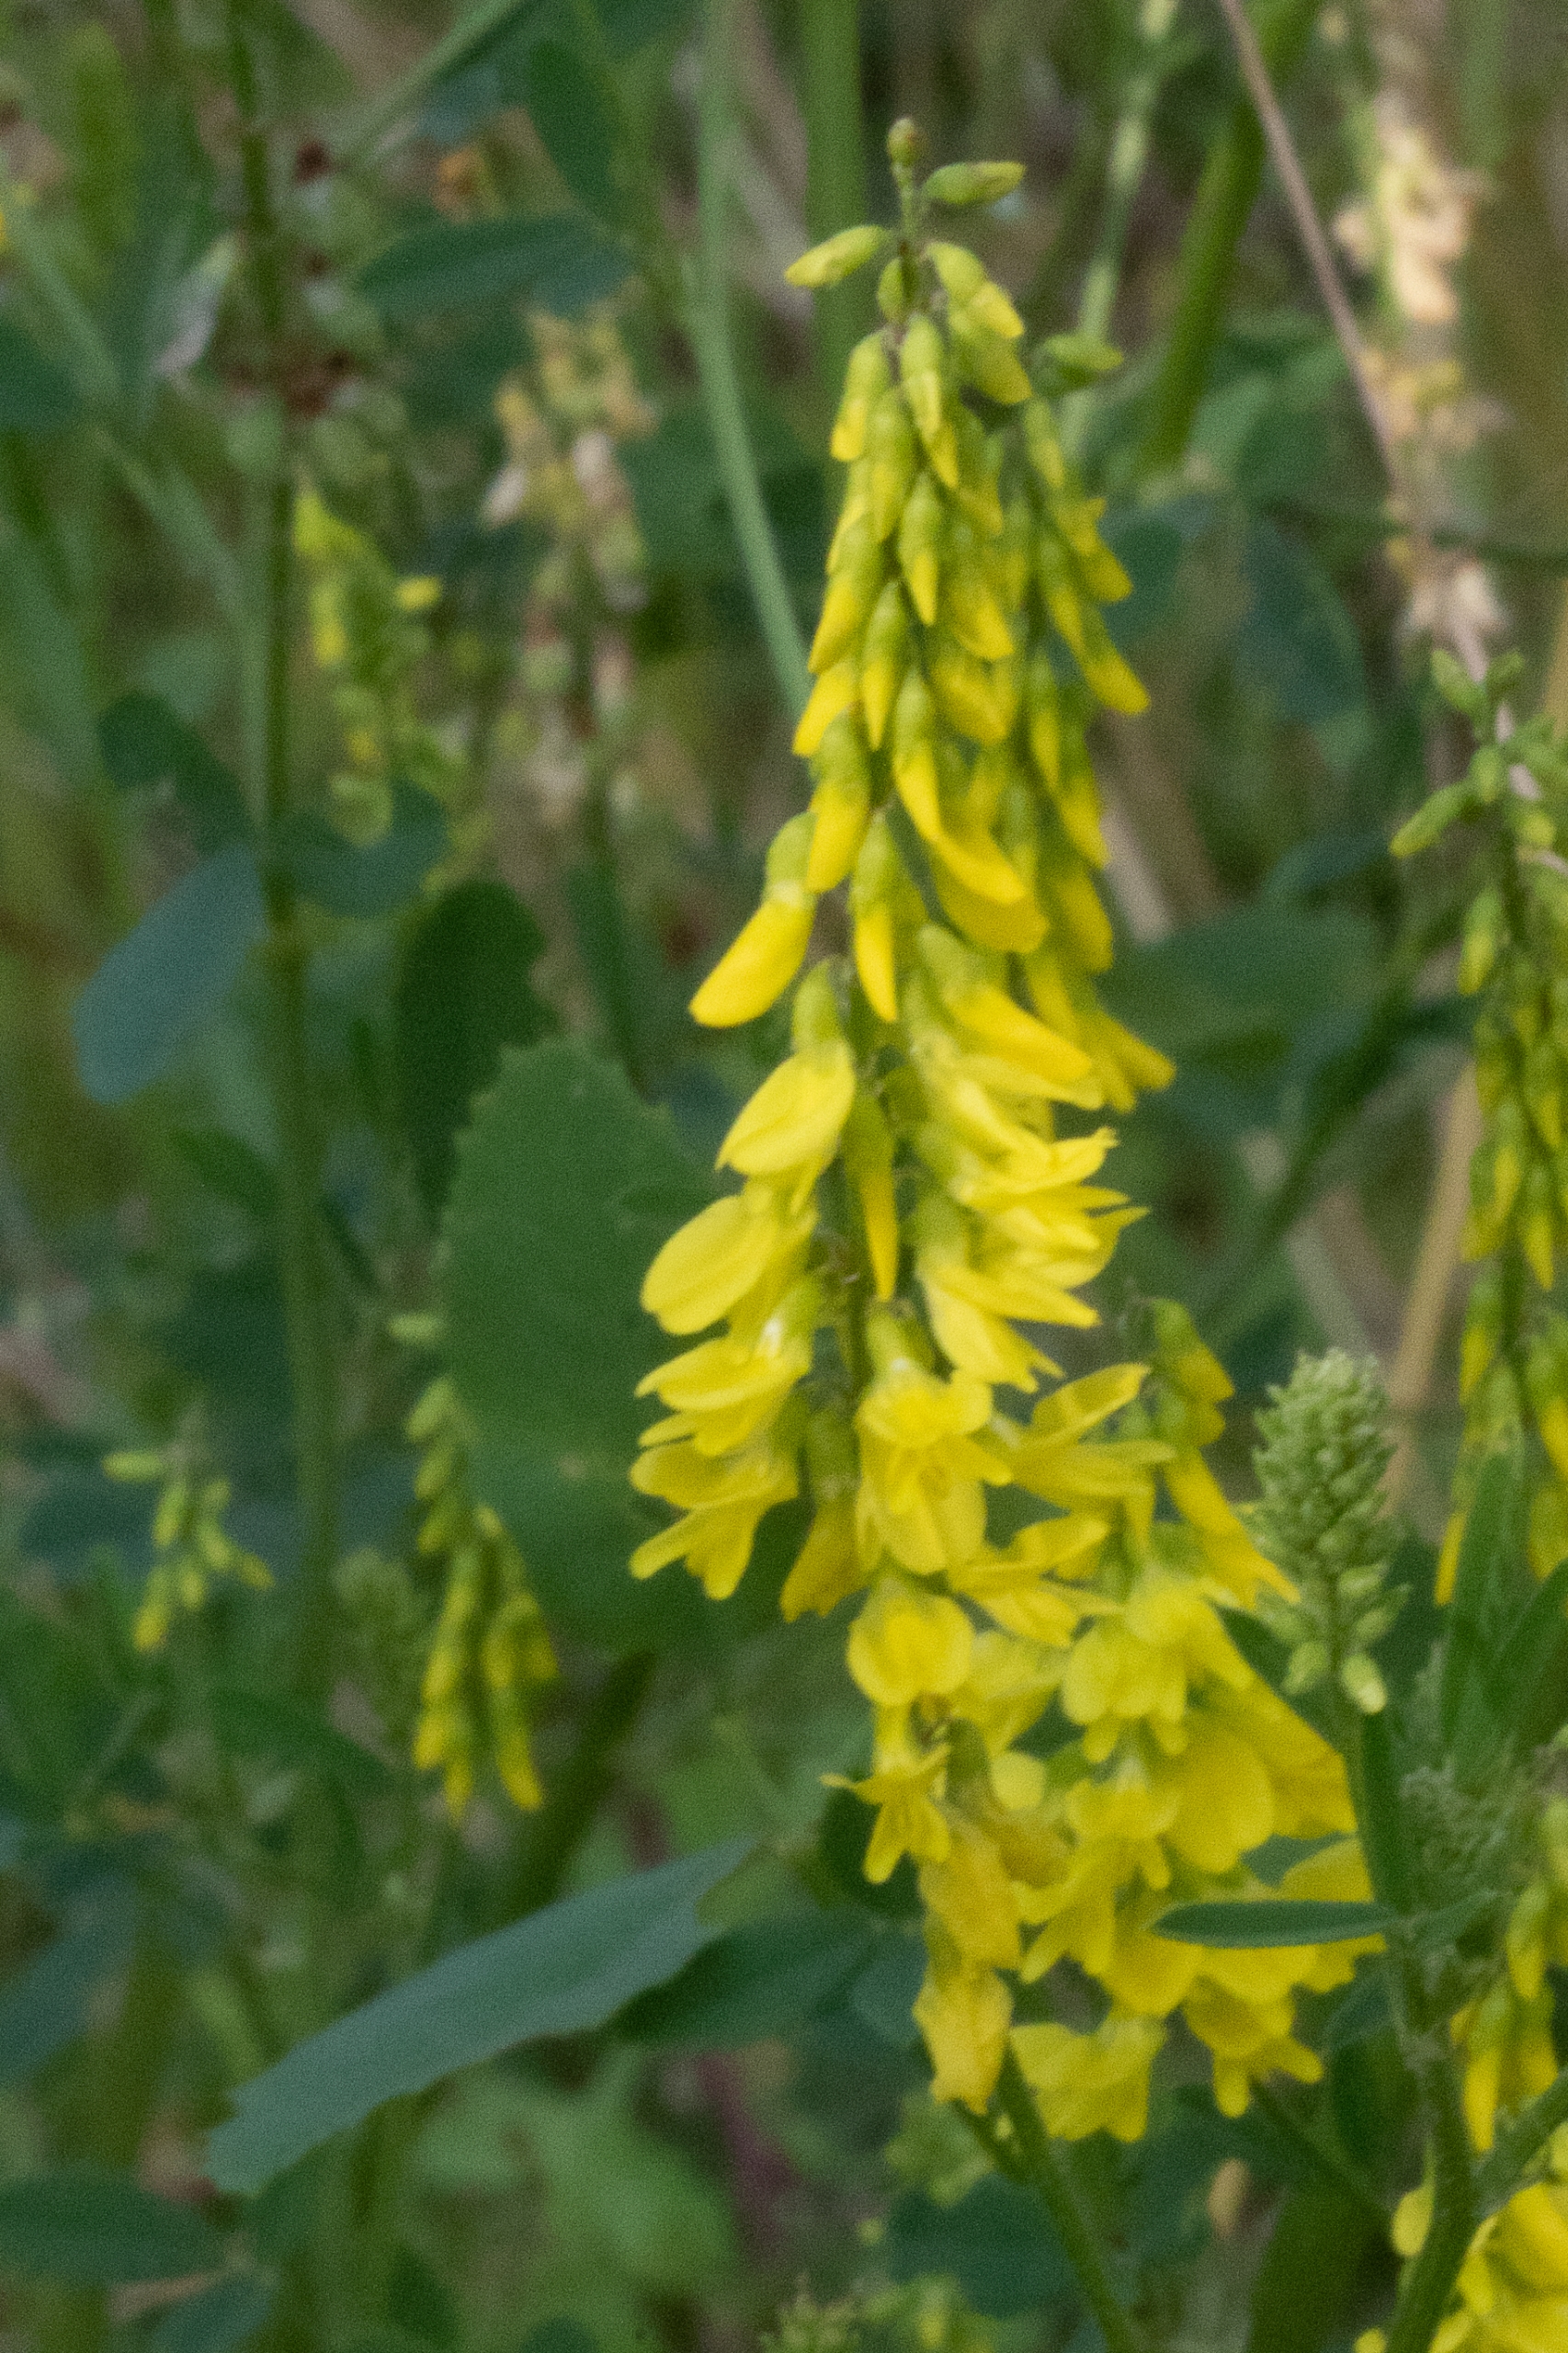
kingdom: Plantae
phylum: Tracheophyta
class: Magnoliopsida
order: Fabales
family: Fabaceae
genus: Melilotus
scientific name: Melilotus officinalis
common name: Mark-stenkløver
